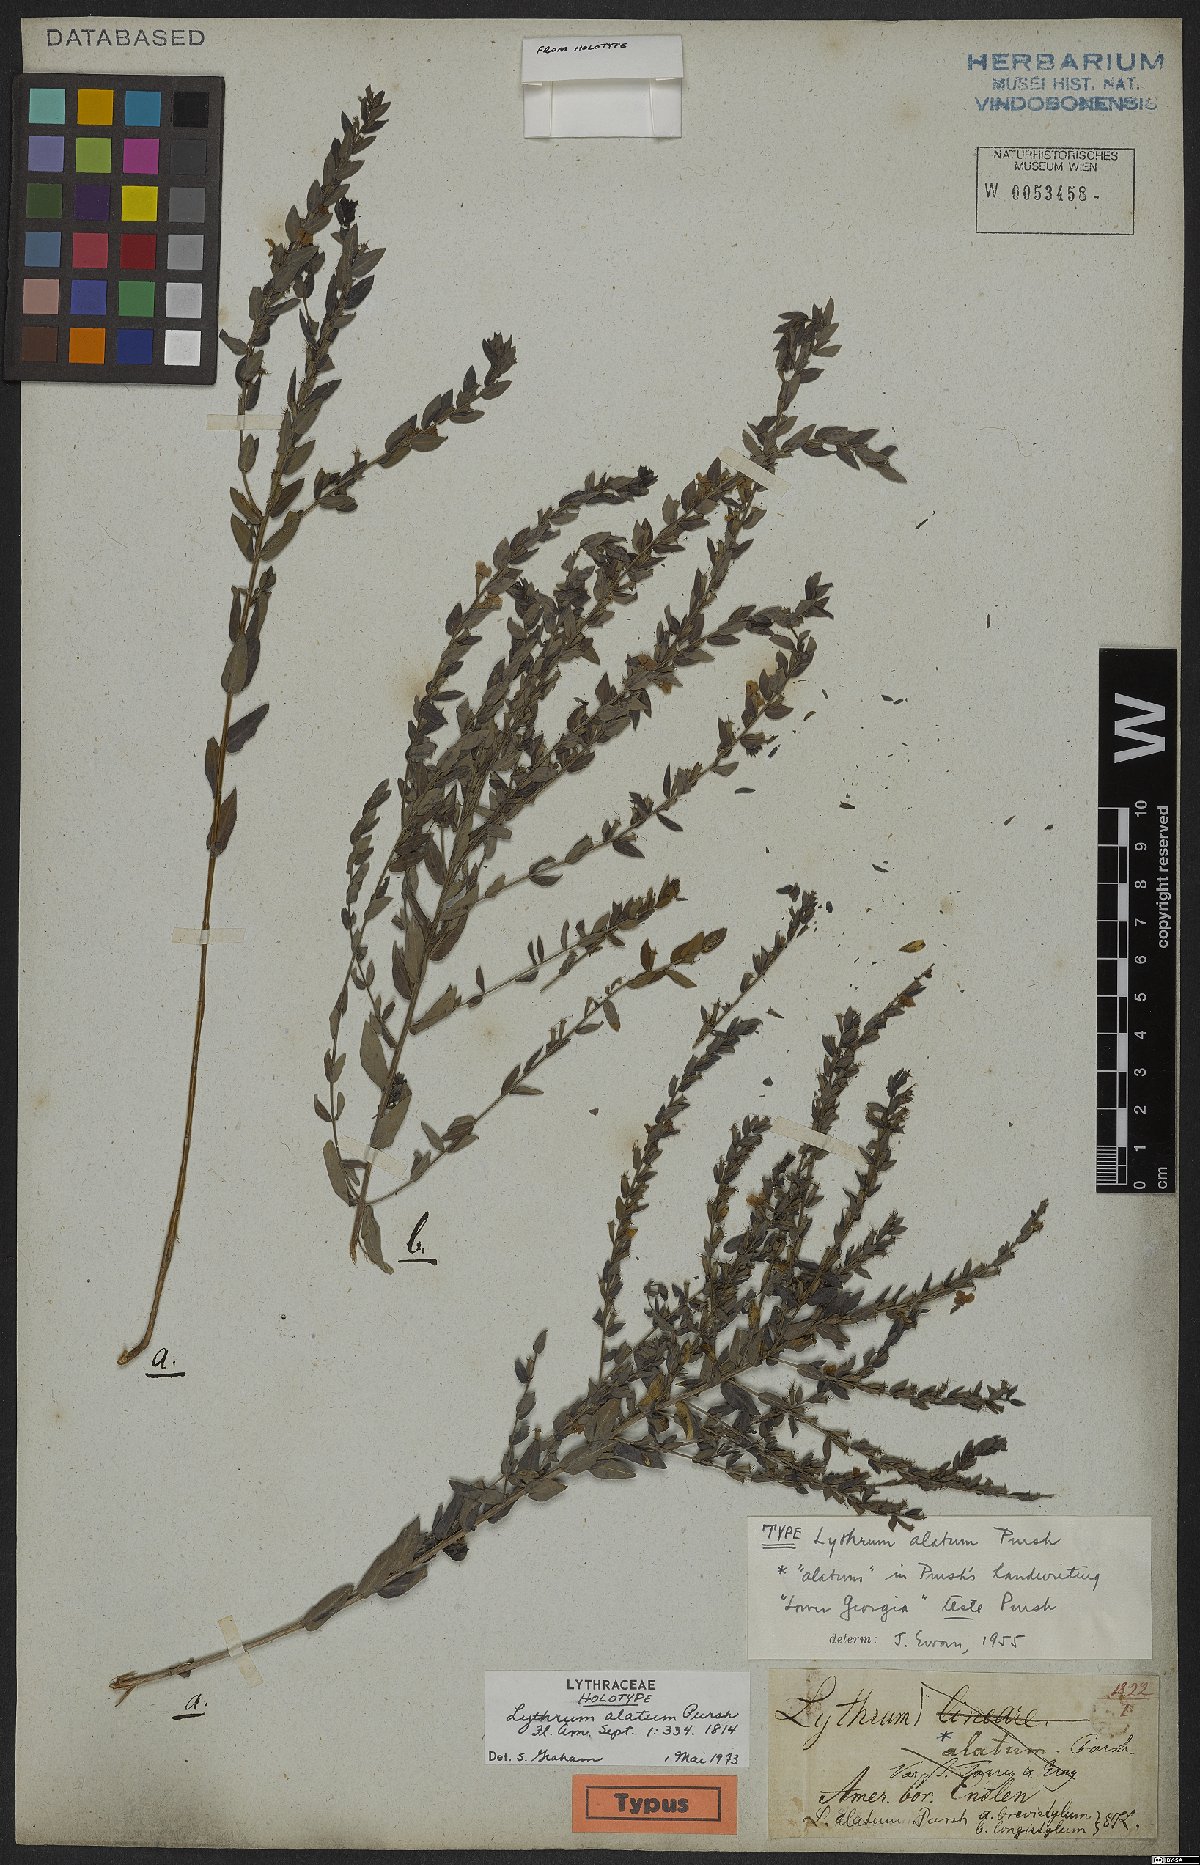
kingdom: Plantae
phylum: Tracheophyta
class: Magnoliopsida
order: Myrtales
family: Lythraceae
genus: Lythrum
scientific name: Lythrum alatum
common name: Winged loosestrife
